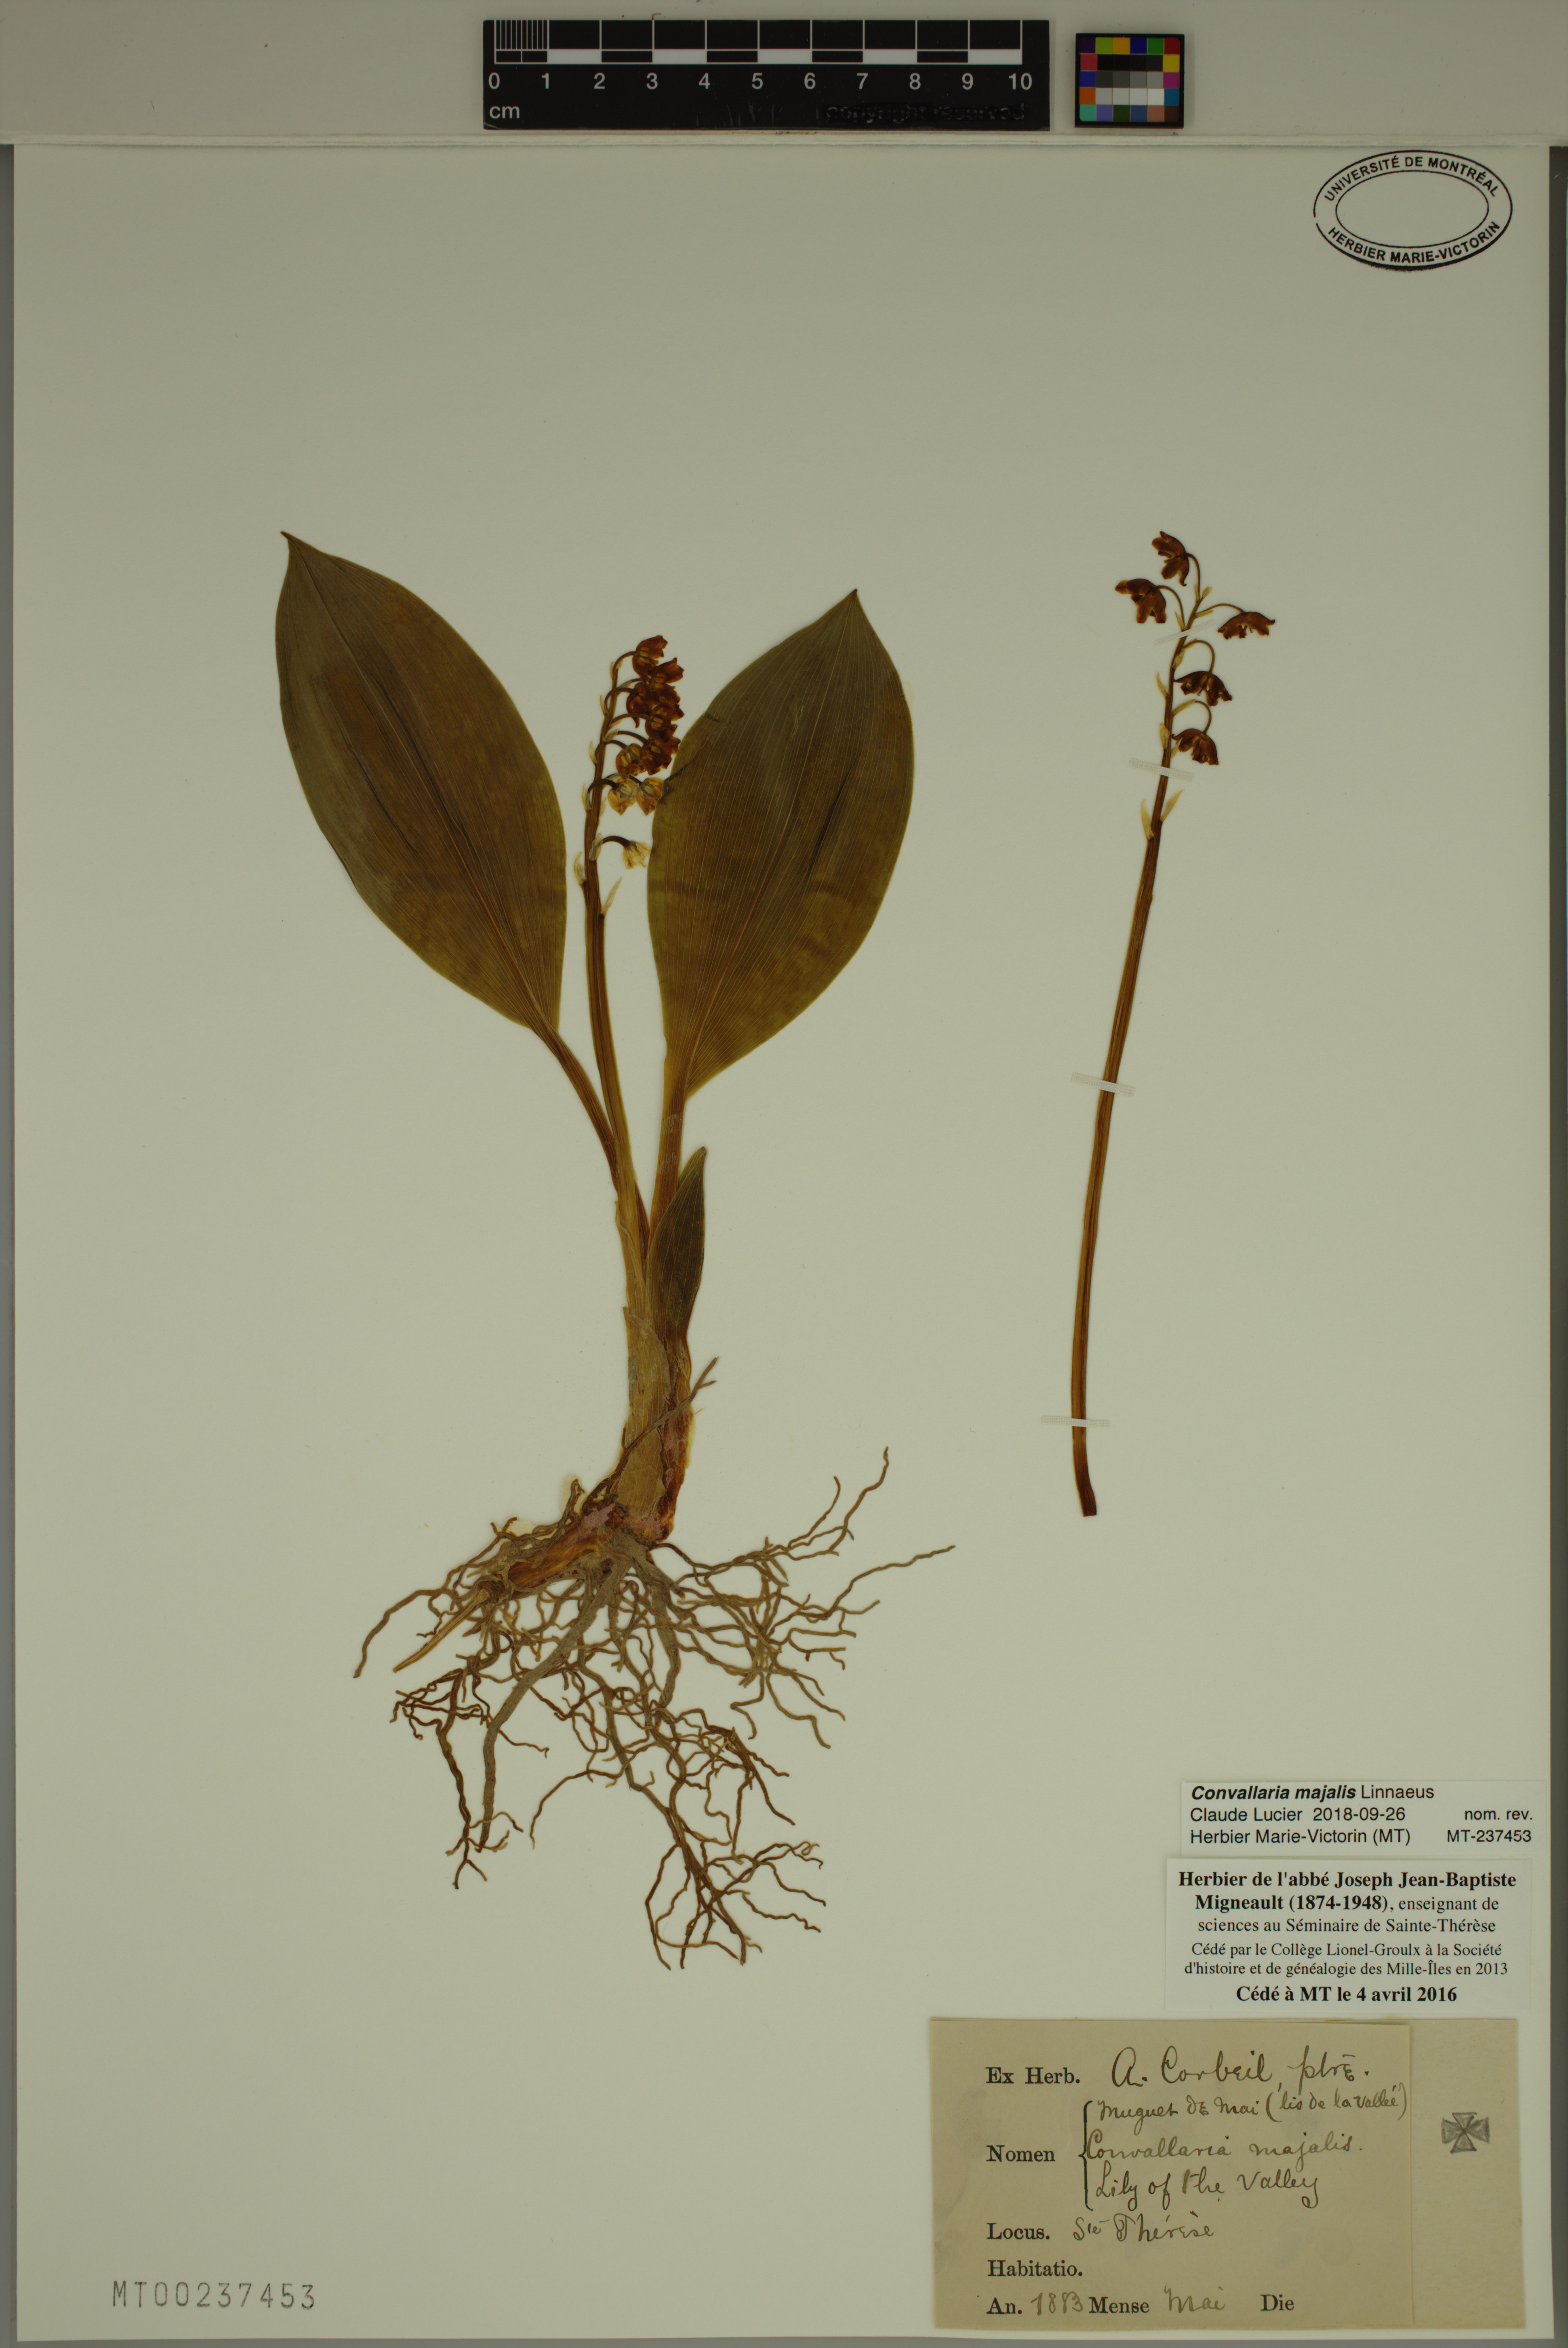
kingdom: Plantae
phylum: Tracheophyta
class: Liliopsida
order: Asparagales
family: Asparagaceae
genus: Convallaria
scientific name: Convallaria majalis
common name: Lily-of-the-valley
